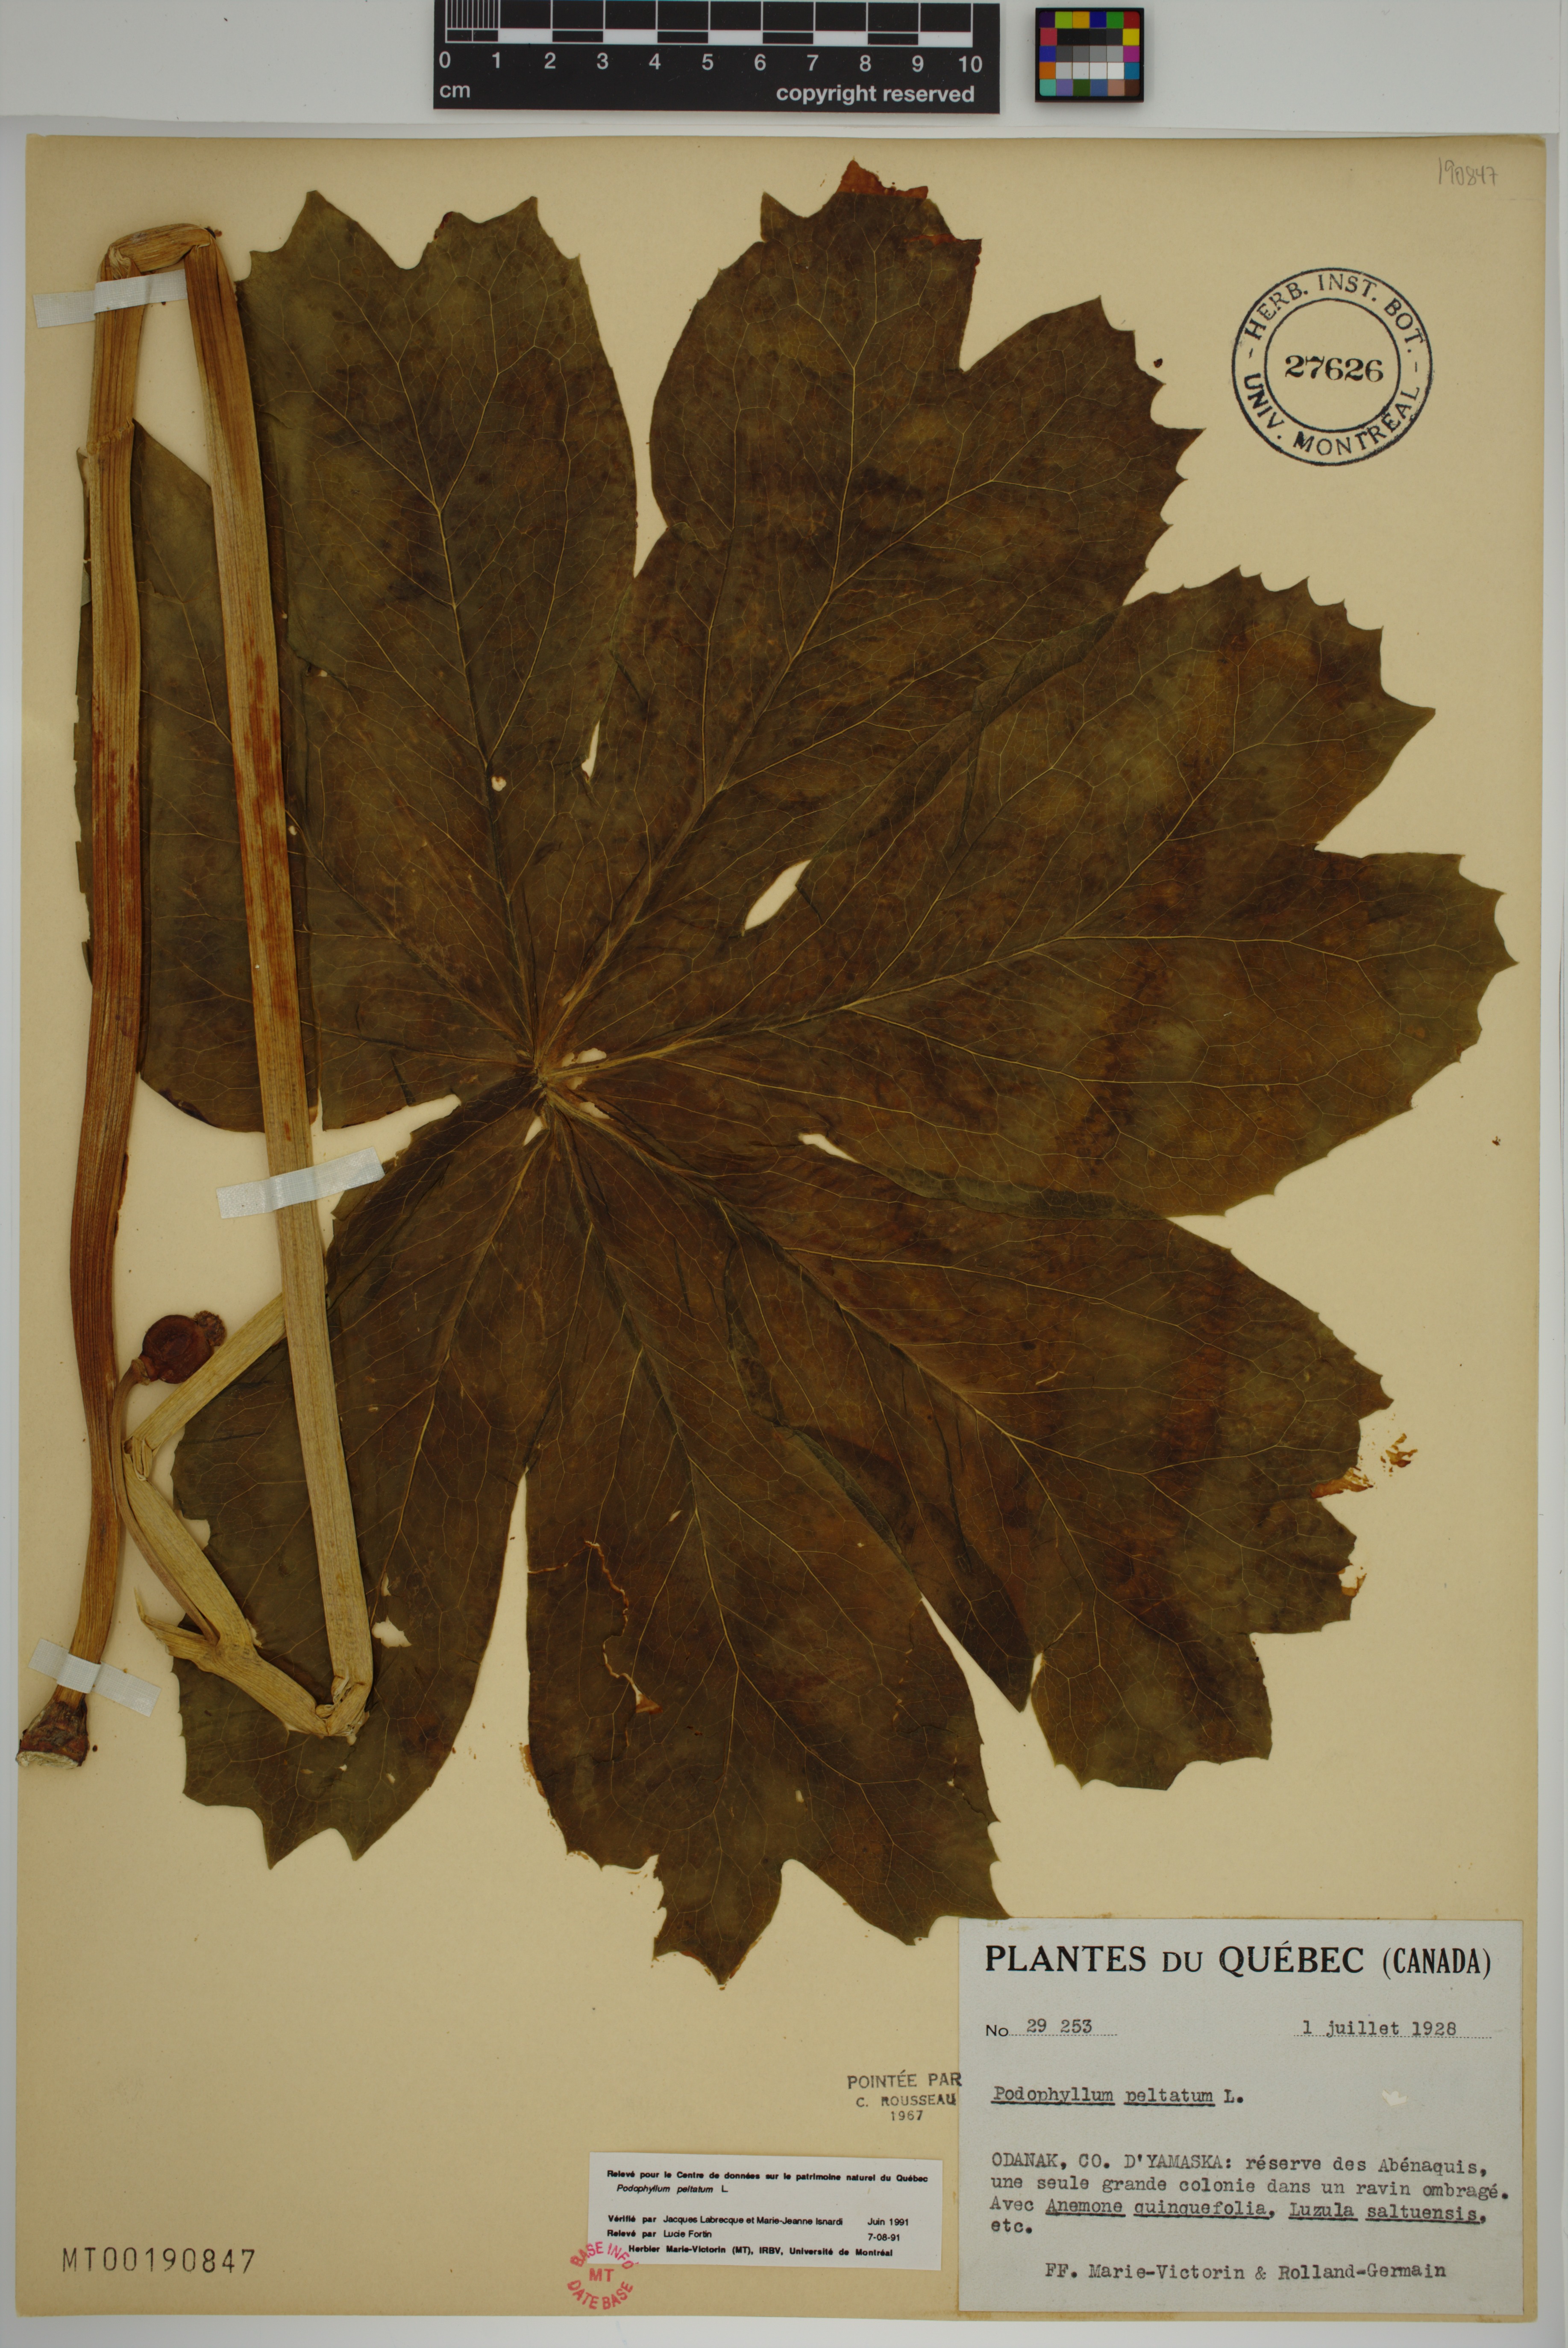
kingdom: Plantae
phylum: Tracheophyta
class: Magnoliopsida
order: Ranunculales
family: Berberidaceae
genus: Podophyllum
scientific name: Podophyllum peltatum
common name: Wild mandrake
